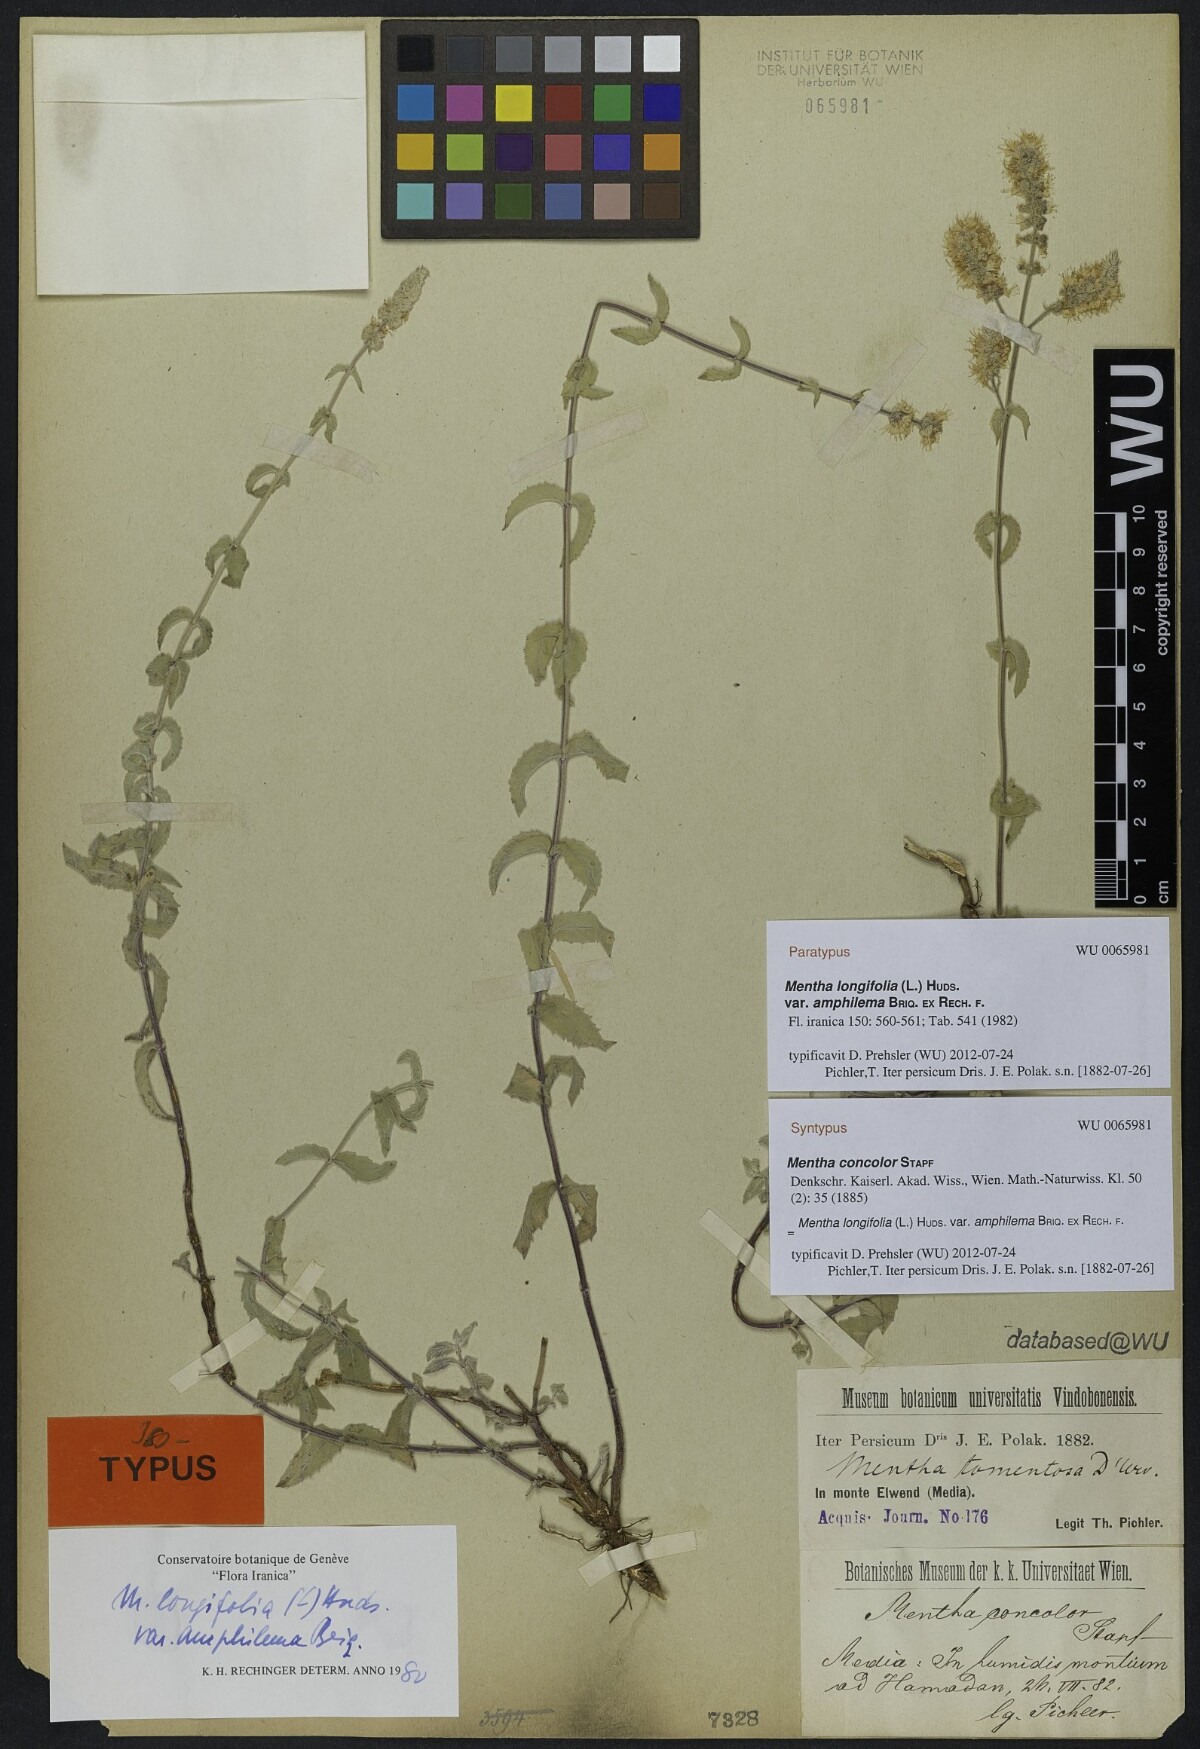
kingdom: Plantae
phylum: Tracheophyta
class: Magnoliopsida
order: Lamiales
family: Lamiaceae
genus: Mentha
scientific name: Mentha longifolia
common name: Horse mint
